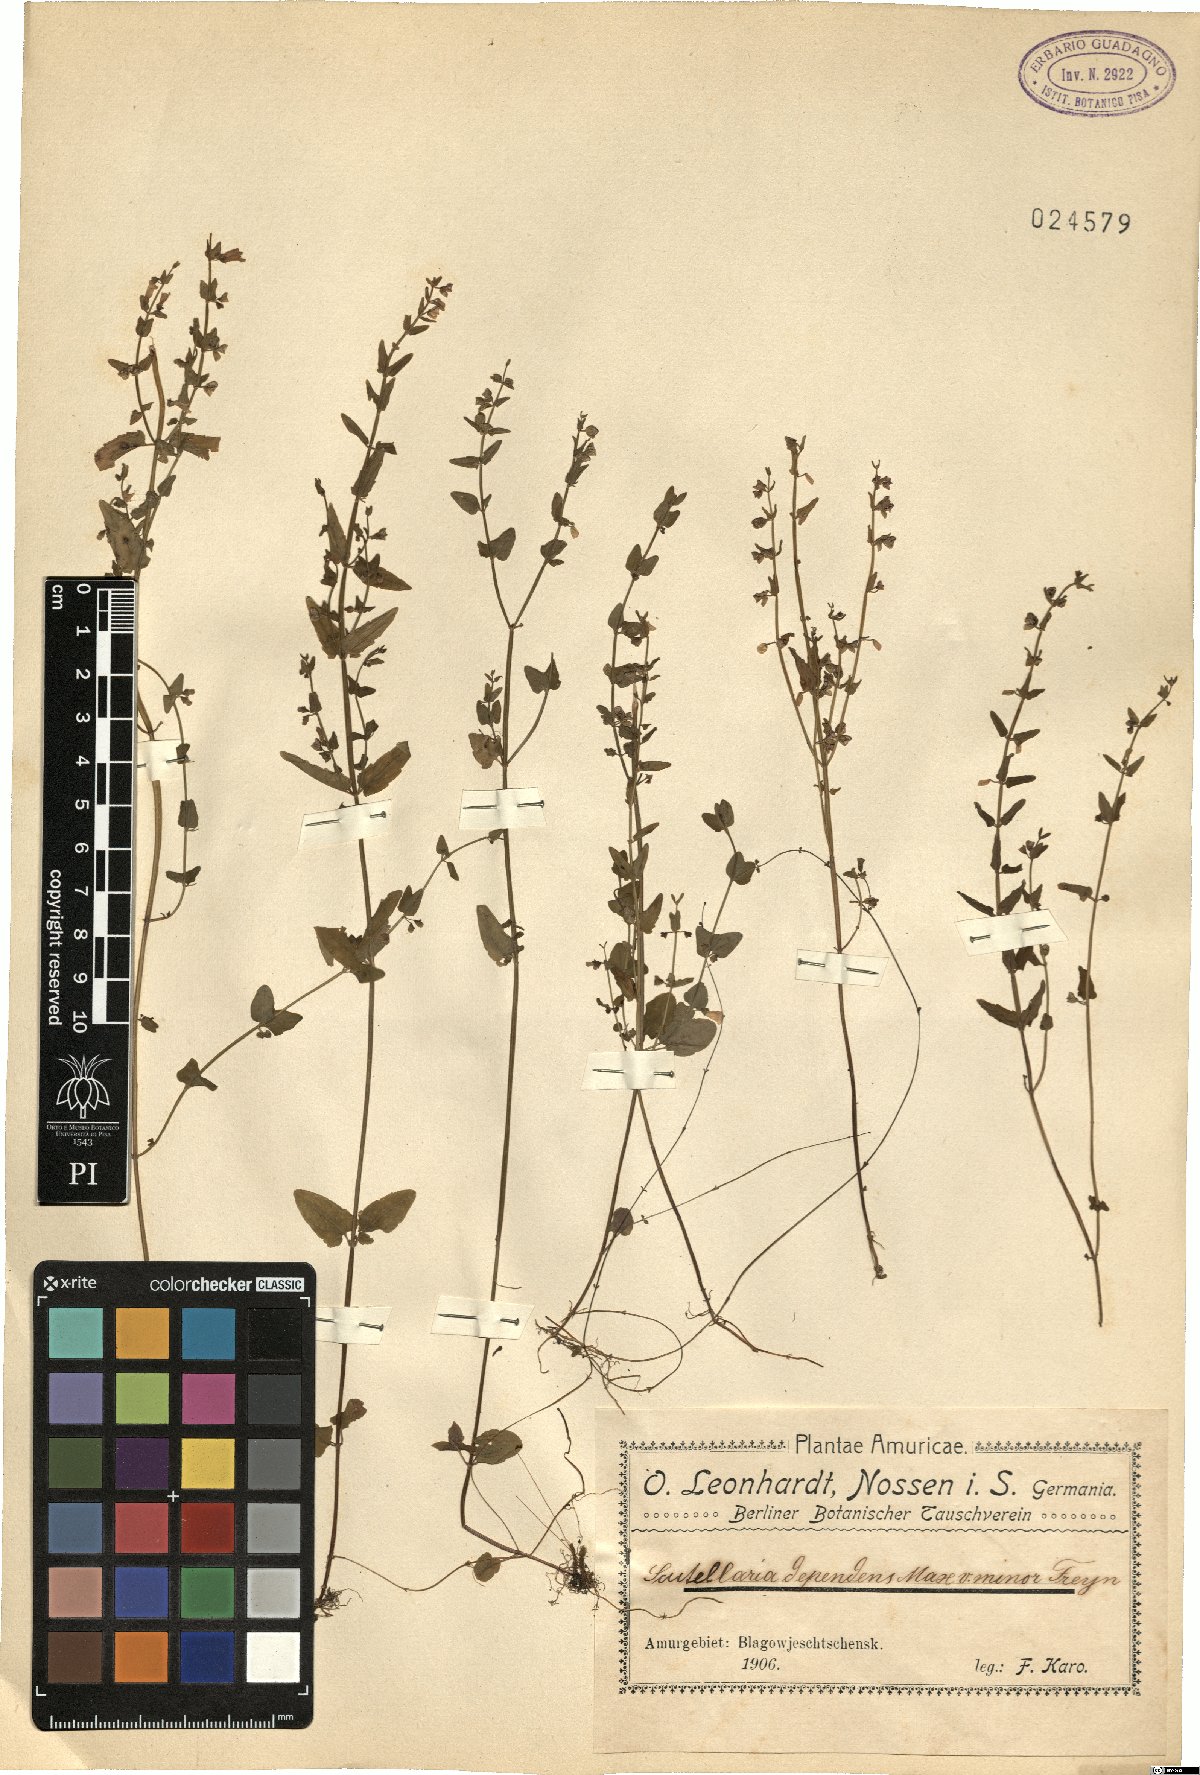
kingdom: Plantae
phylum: Tracheophyta
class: Magnoliopsida
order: Lamiales
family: Lamiaceae
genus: Scutellaria
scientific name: Scutellaria dependens
